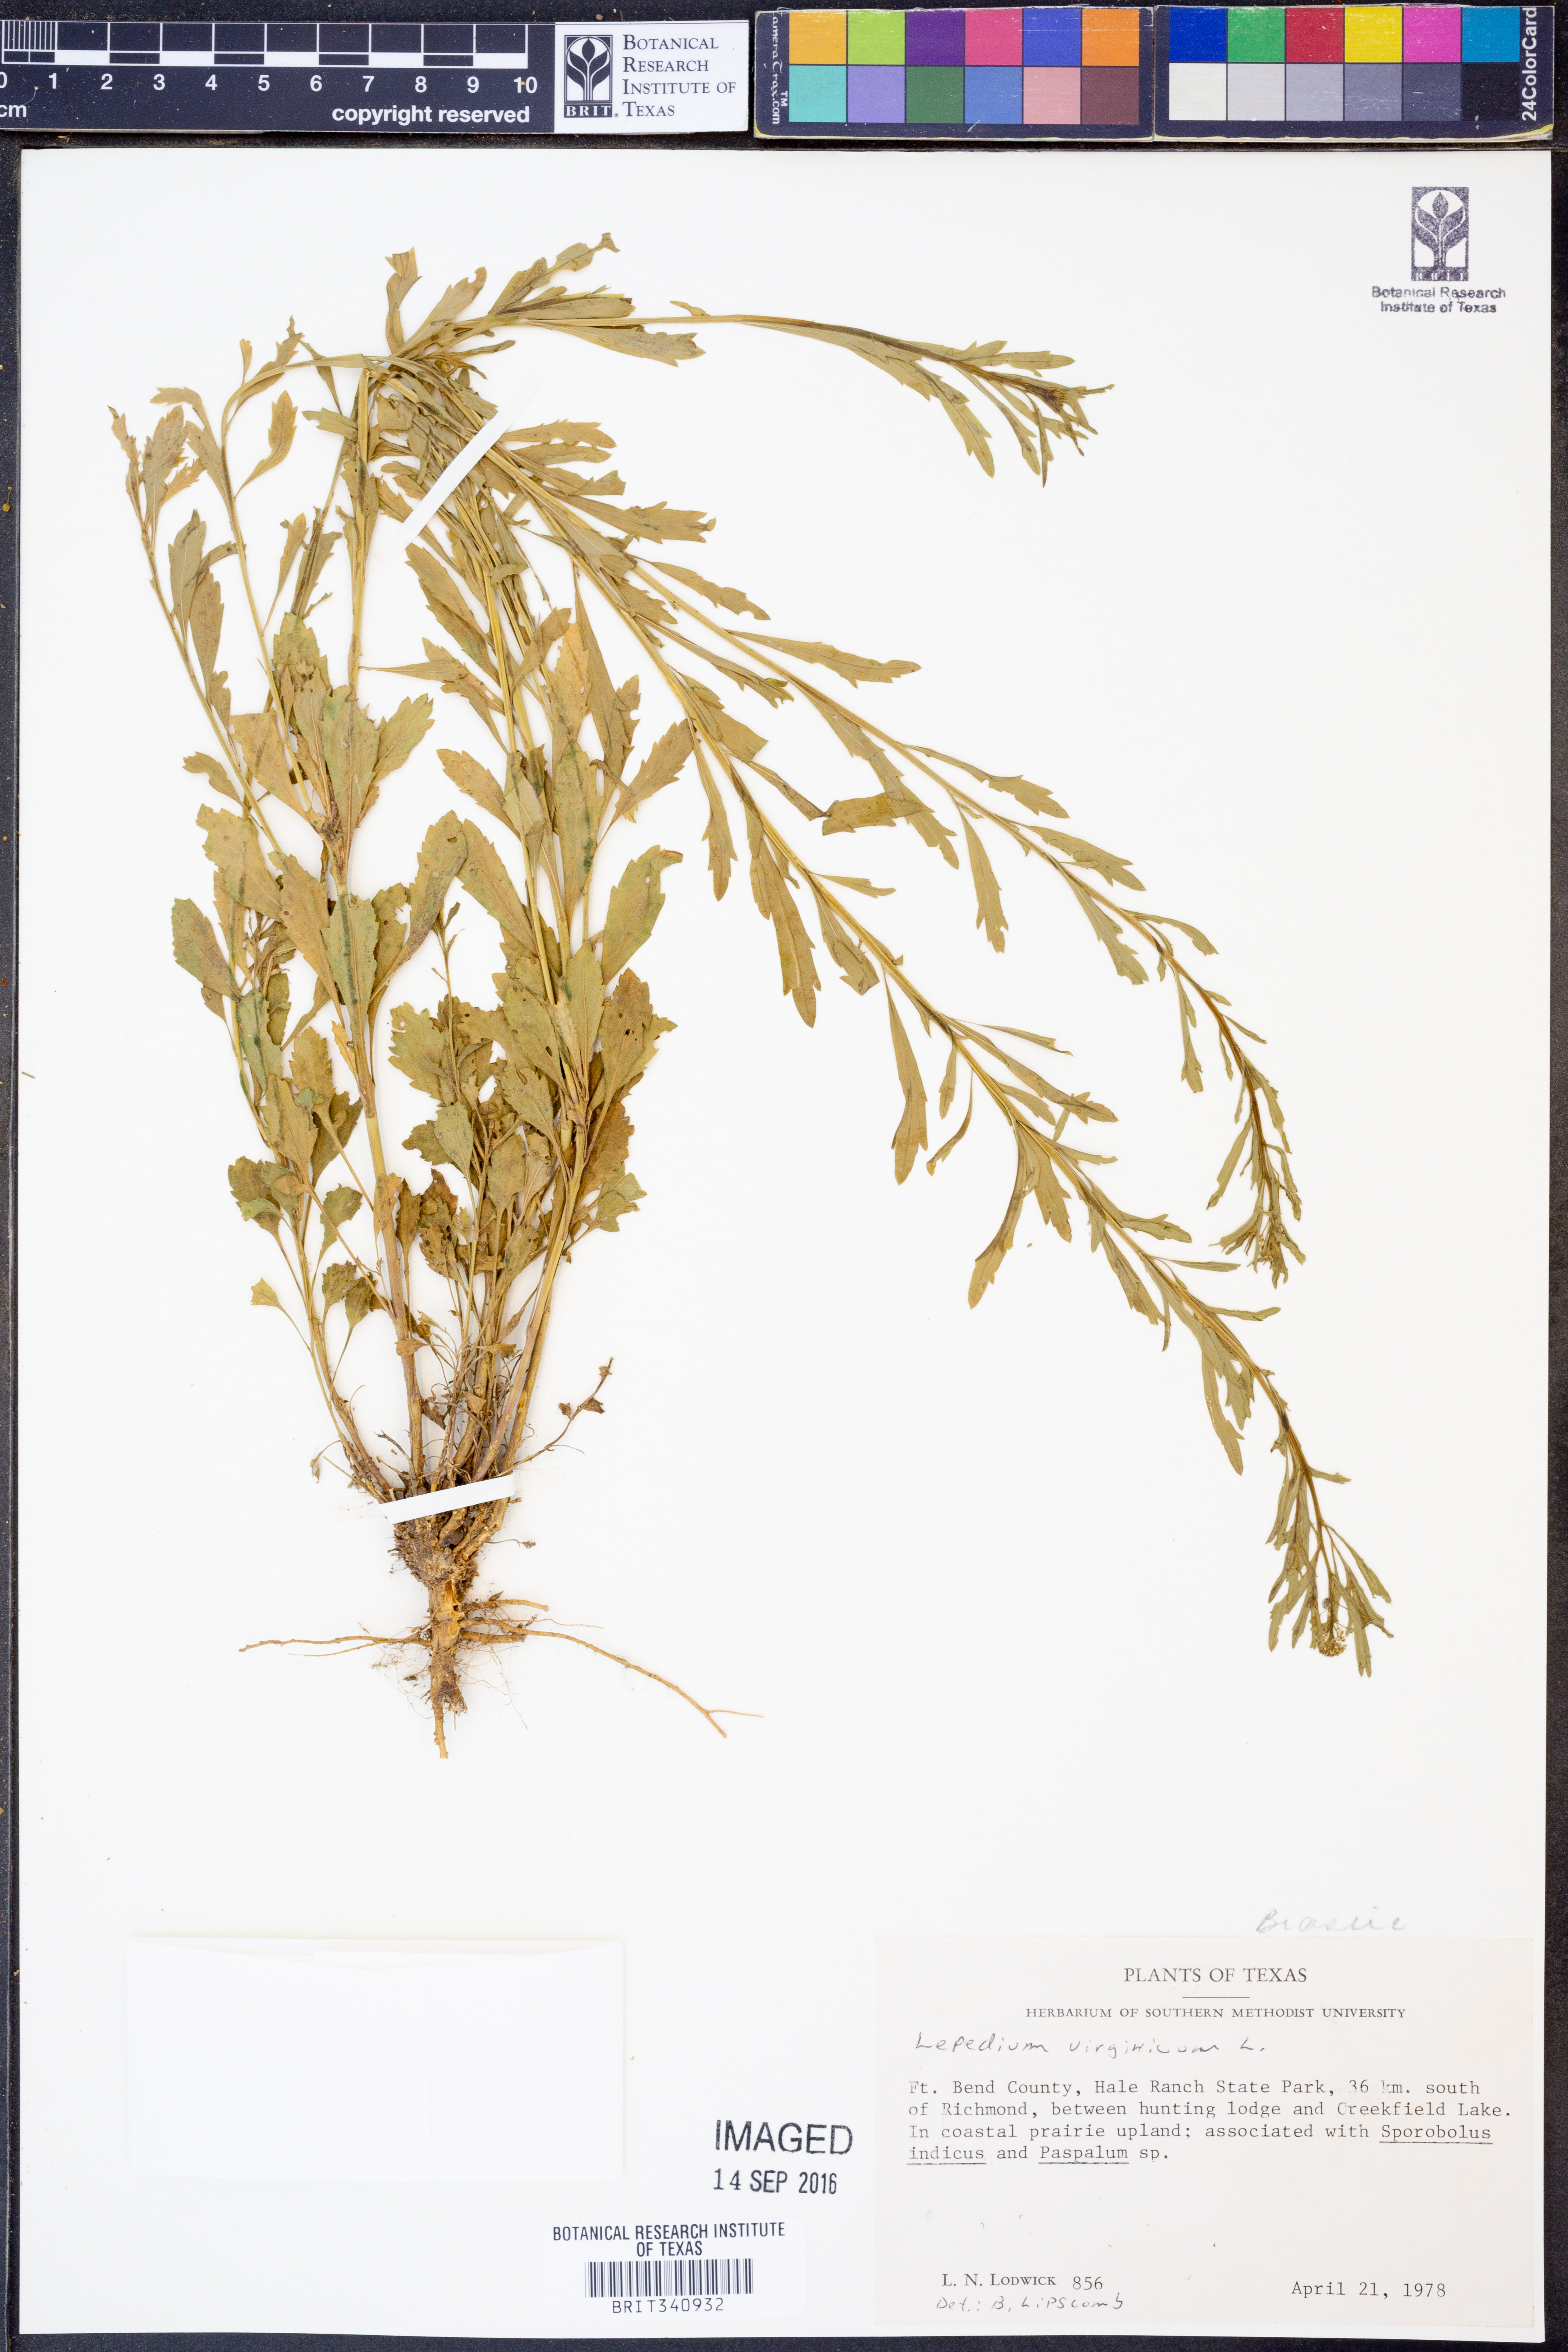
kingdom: Plantae
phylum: Tracheophyta
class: Magnoliopsida
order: Brassicales
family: Brassicaceae
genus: Lepidium
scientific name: Lepidium virginicum
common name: Least pepperwort
